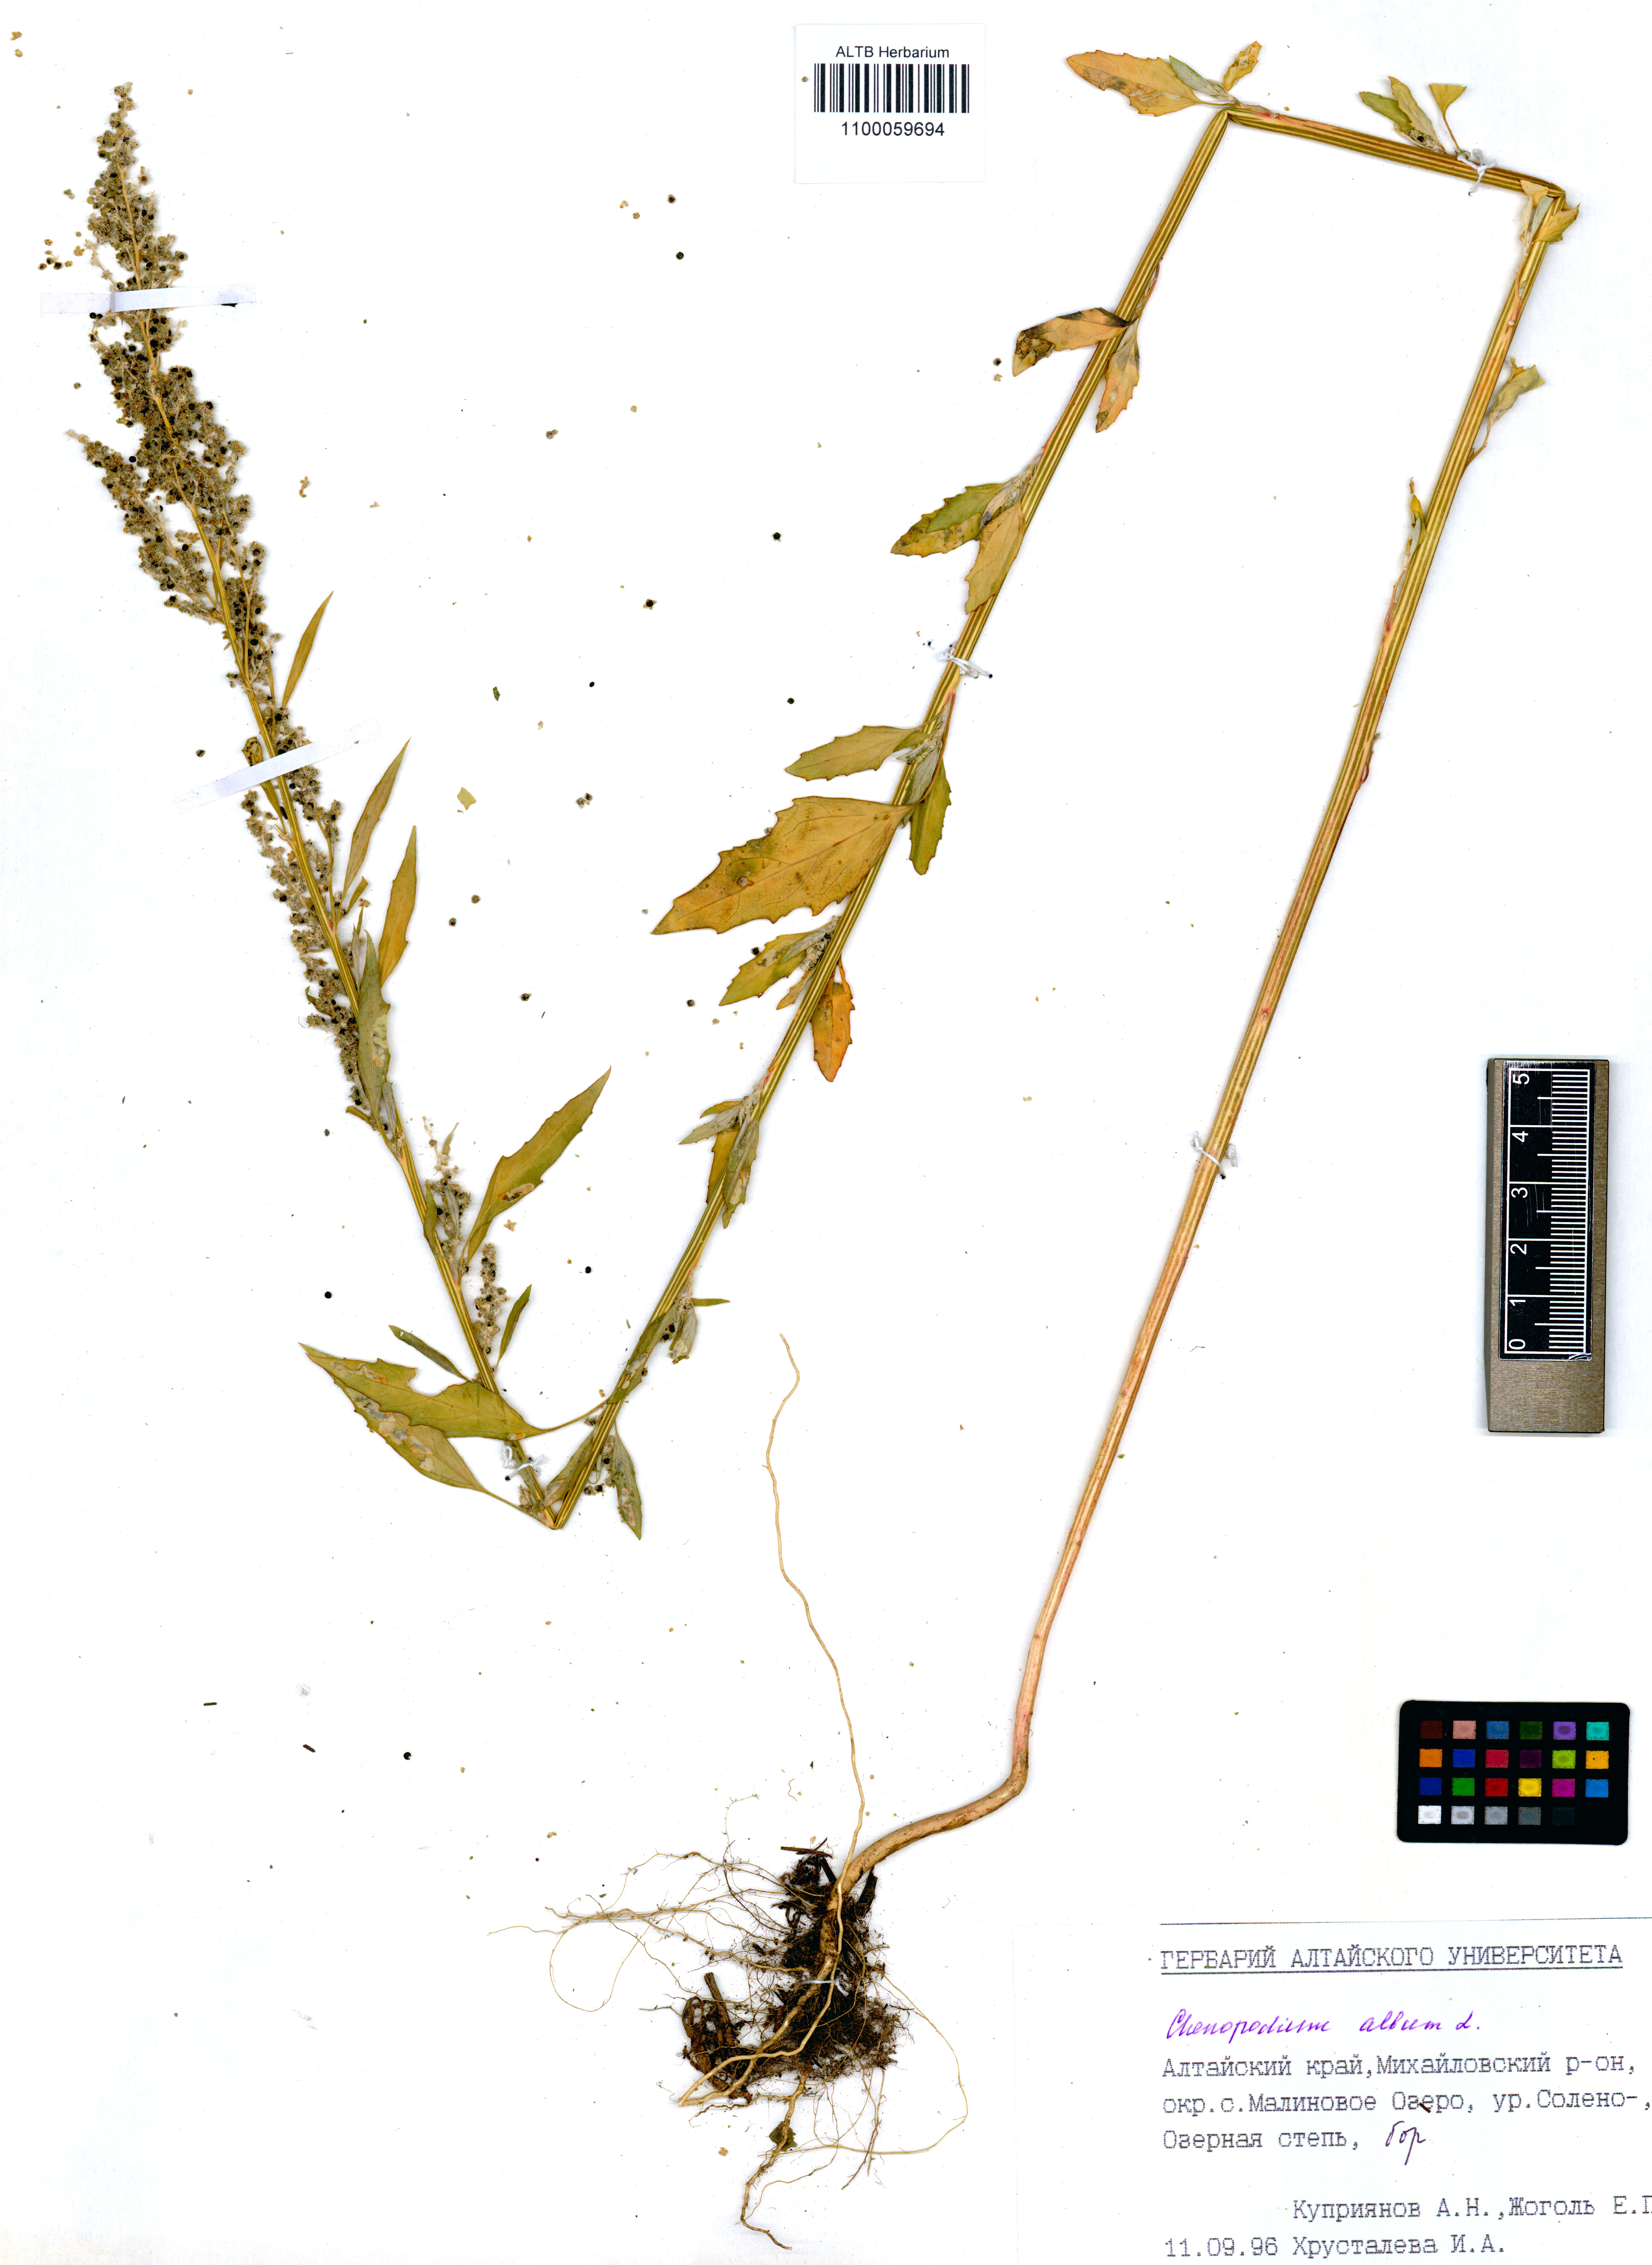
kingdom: Plantae
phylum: Tracheophyta
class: Magnoliopsida
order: Caryophyllales
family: Amaranthaceae
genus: Chenopodium
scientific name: Chenopodium album
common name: Fat-hen
